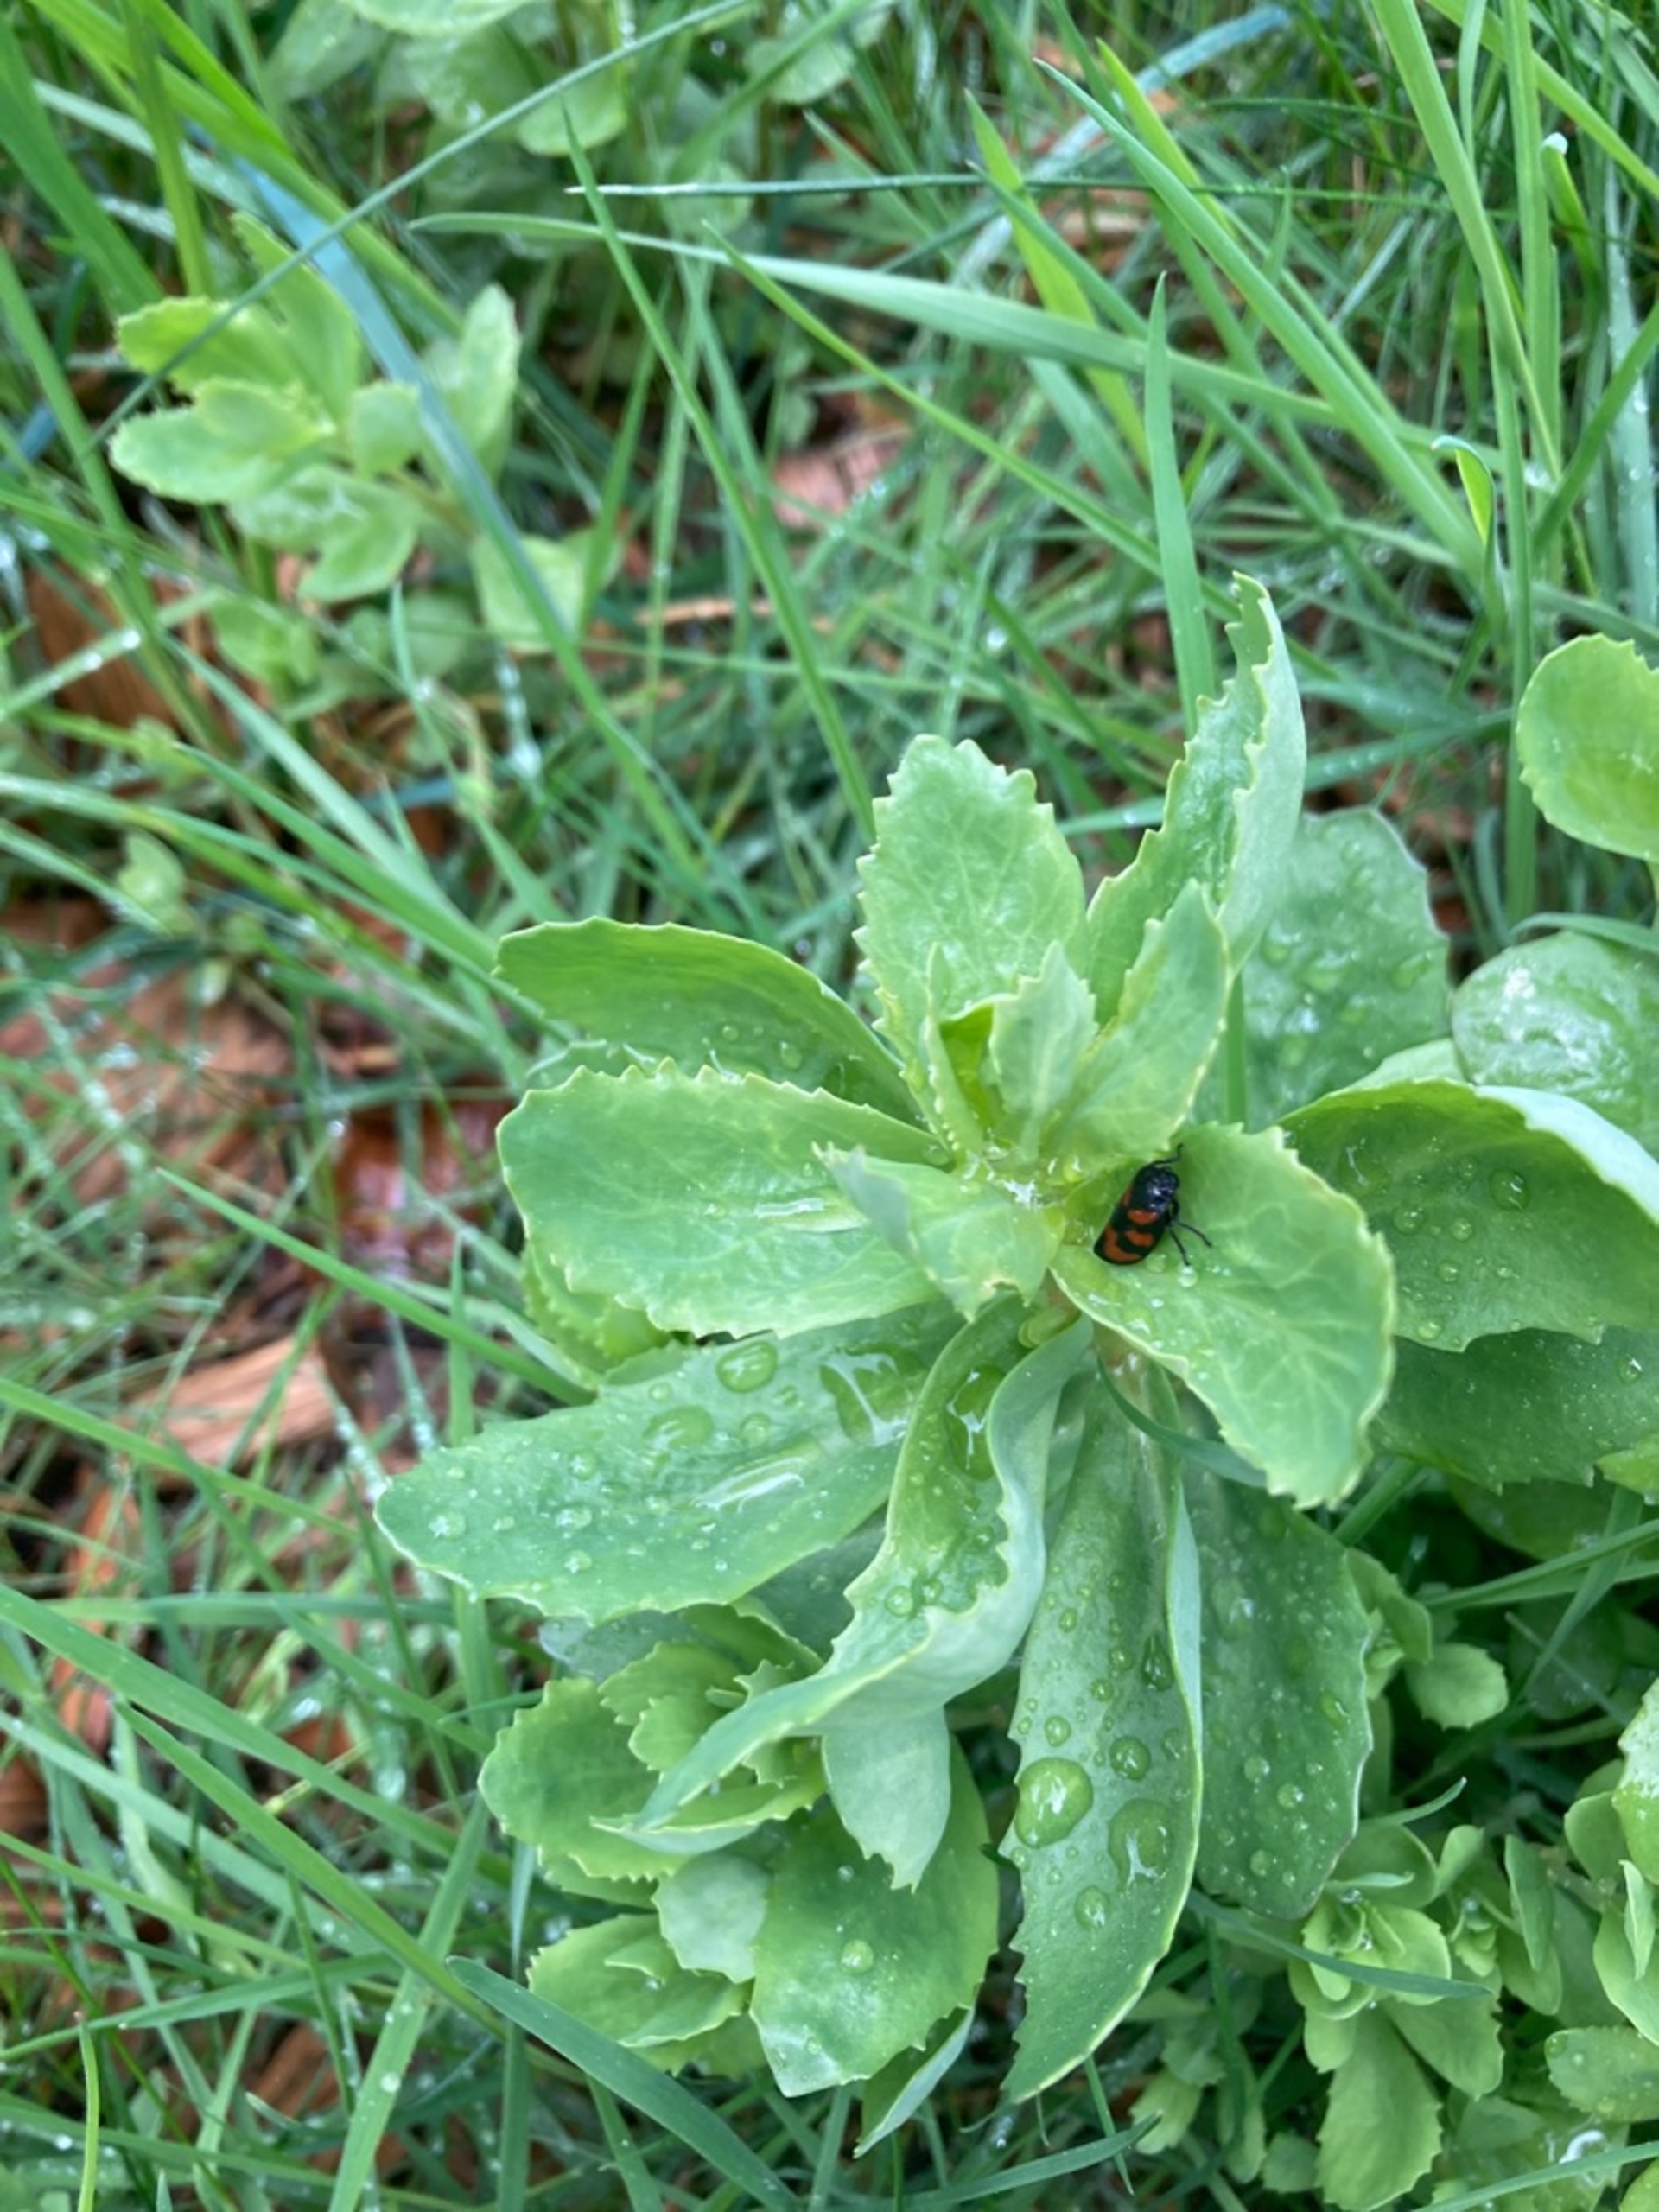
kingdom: Animalia
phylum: Arthropoda
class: Insecta
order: Hemiptera
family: Cercopidae
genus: Cercopis
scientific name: Cercopis vulnerata
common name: Blodcikade
